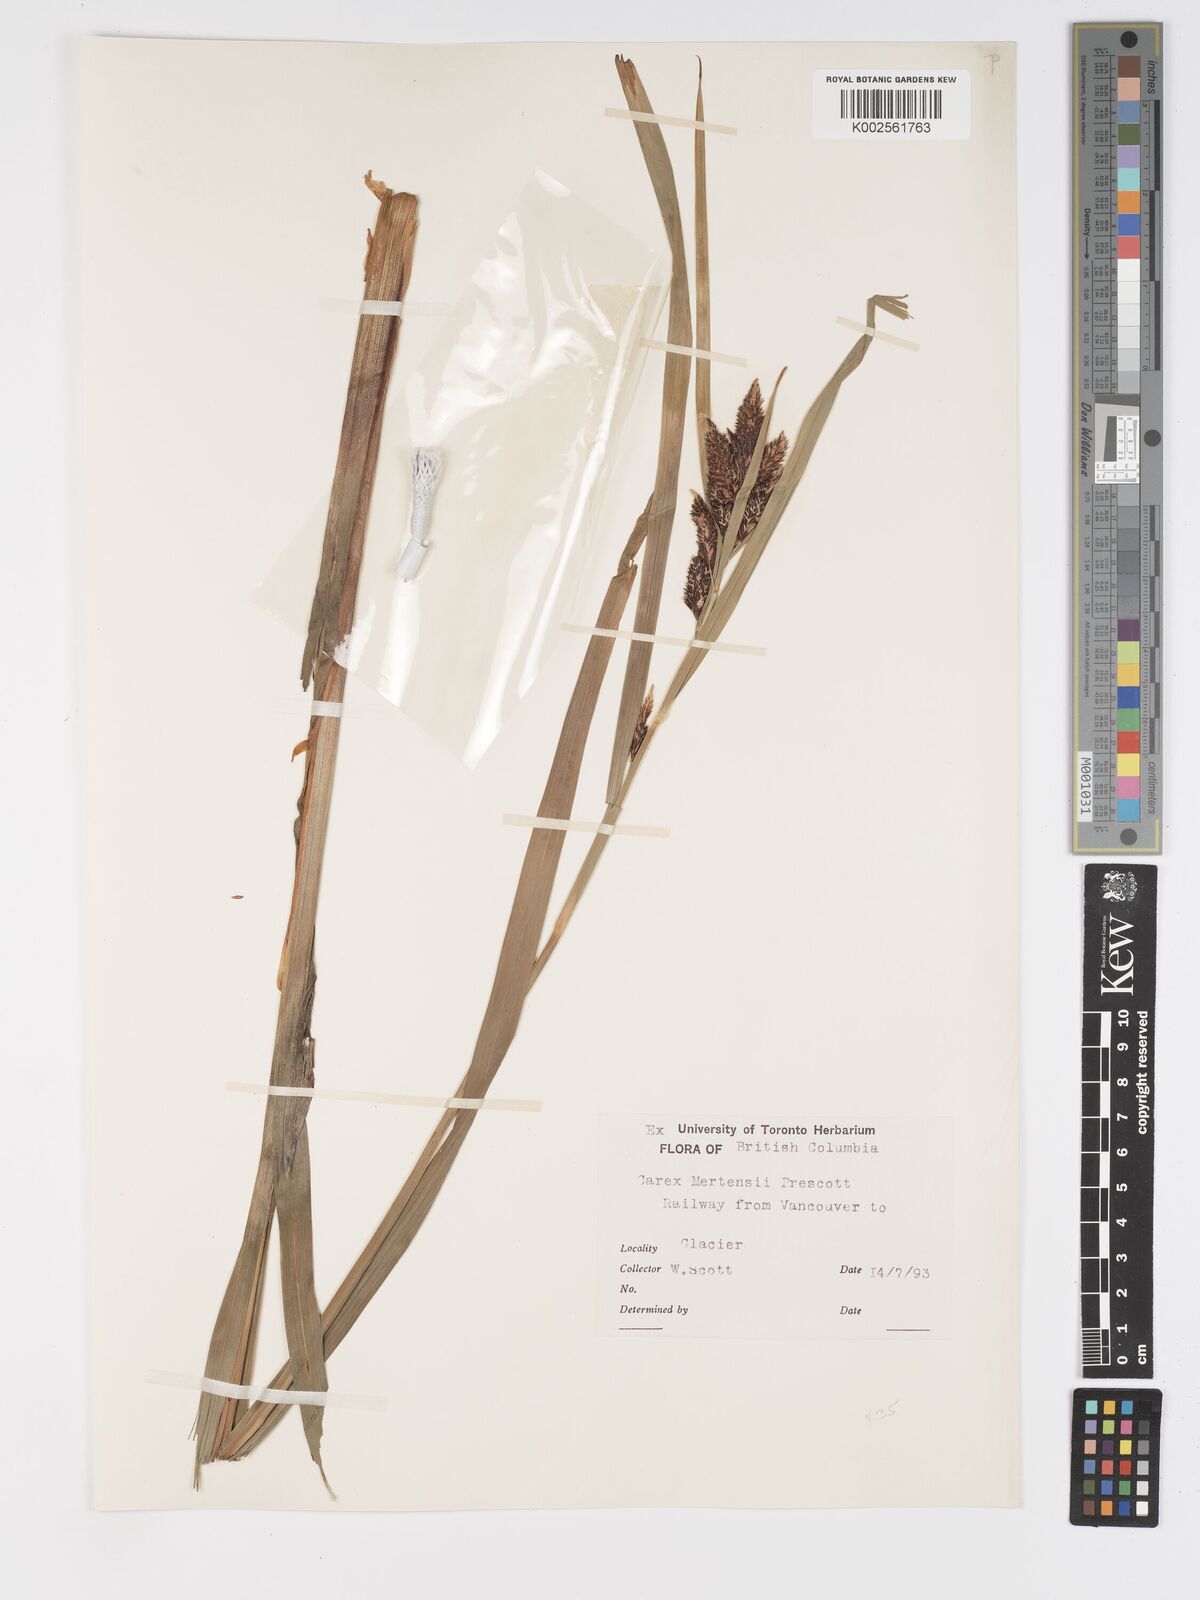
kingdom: Plantae
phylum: Tracheophyta
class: Liliopsida
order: Poales
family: Cyperaceae
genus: Carex
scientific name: Carex mertensii
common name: Mertens' sedge
